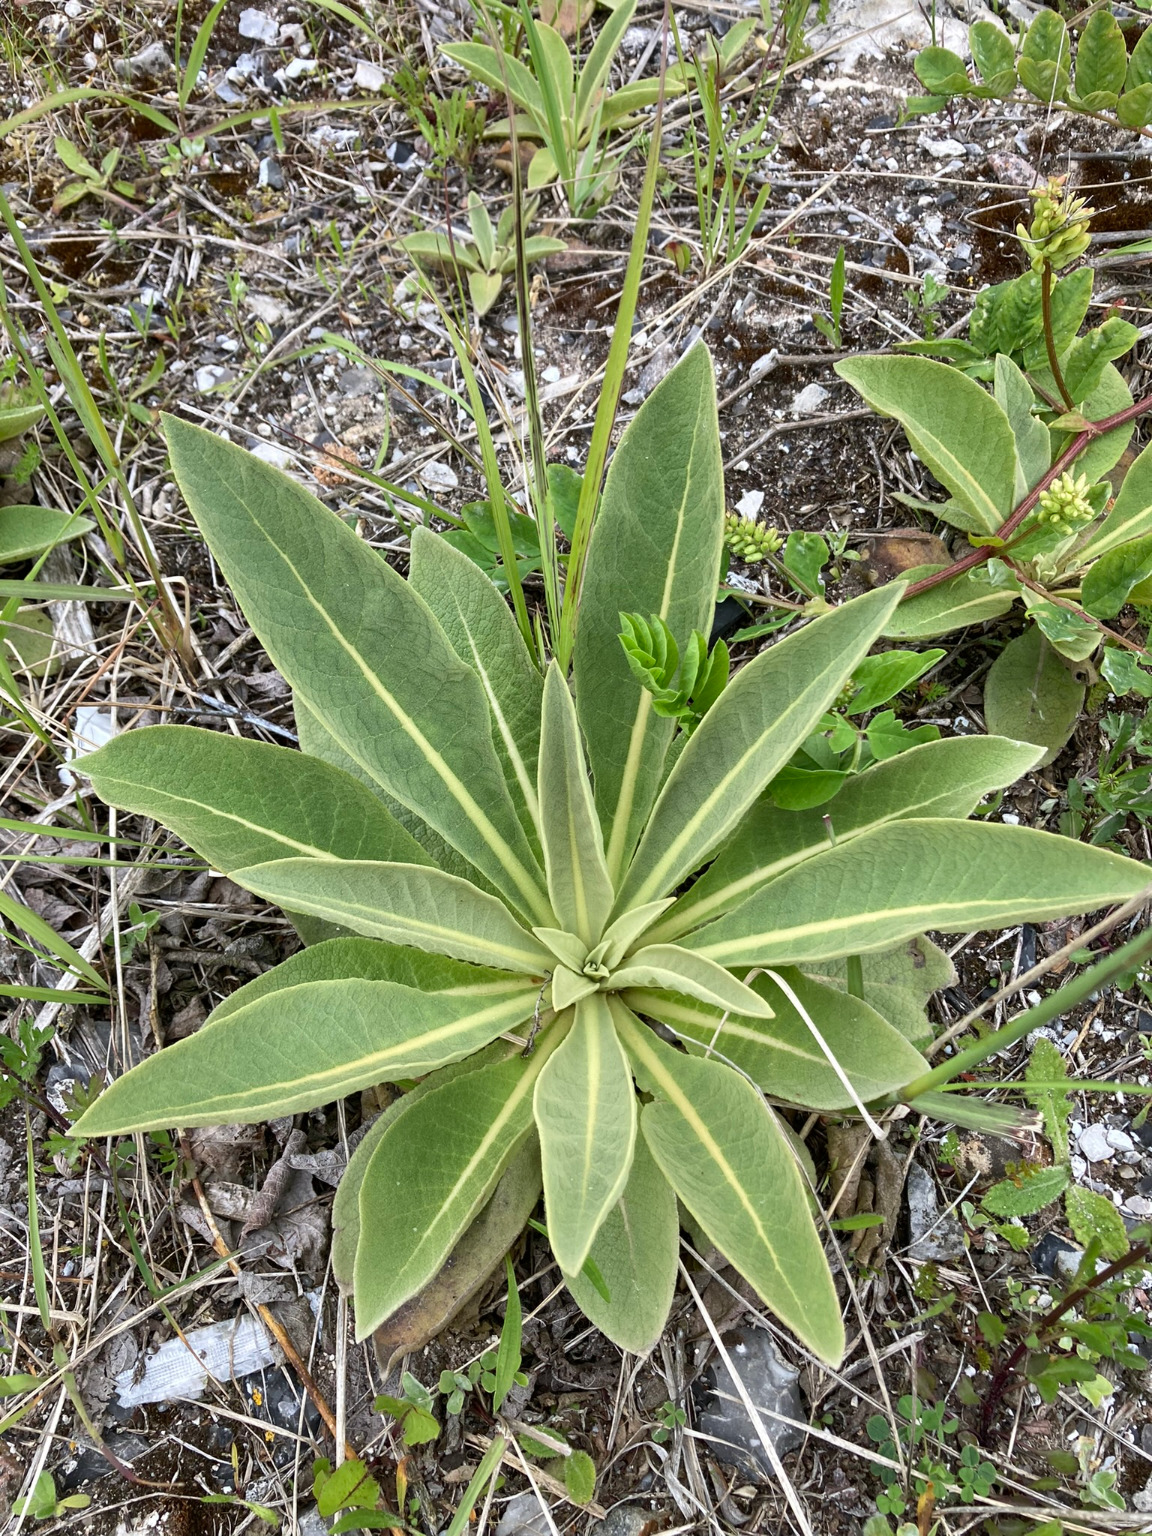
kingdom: Plantae
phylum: Tracheophyta
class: Magnoliopsida
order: Lamiales
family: Scrophulariaceae
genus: Verbascum
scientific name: Verbascum speciosum
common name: Kandelaber-kongelys
